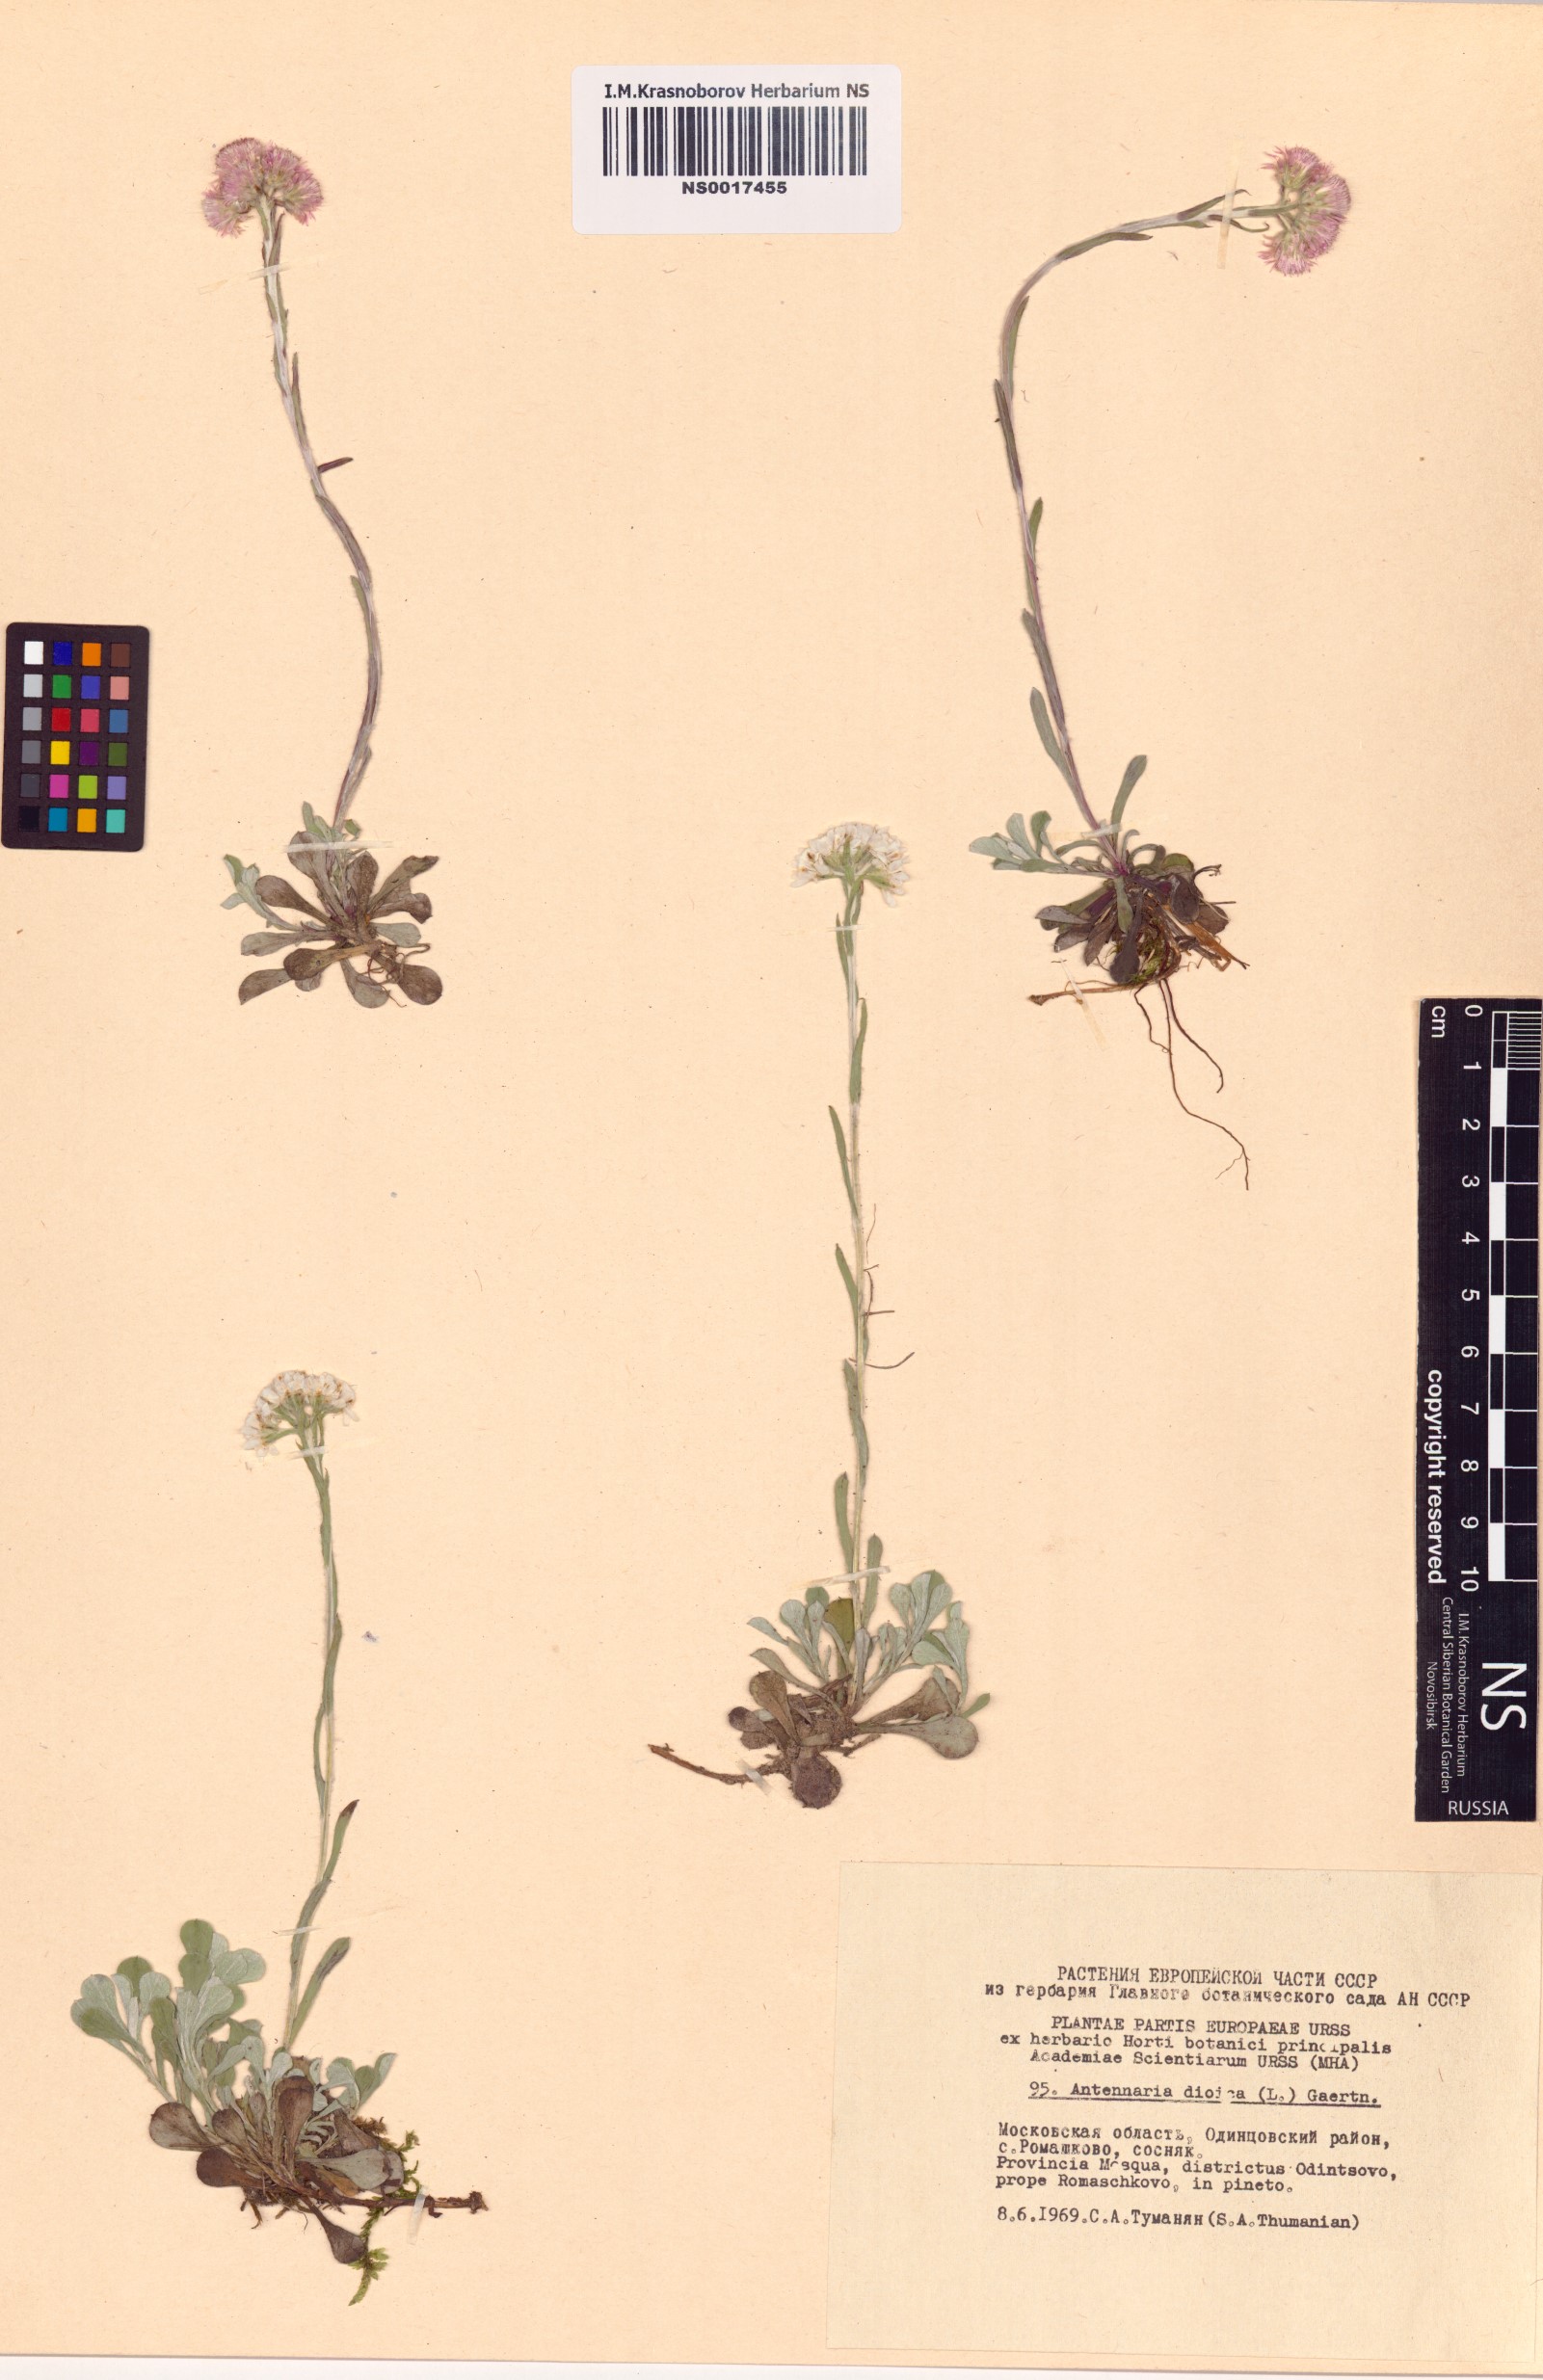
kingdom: Plantae
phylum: Tracheophyta
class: Magnoliopsida
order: Asterales
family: Asteraceae
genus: Antennaria
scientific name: Antennaria dioica
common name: Mountain everlasting
